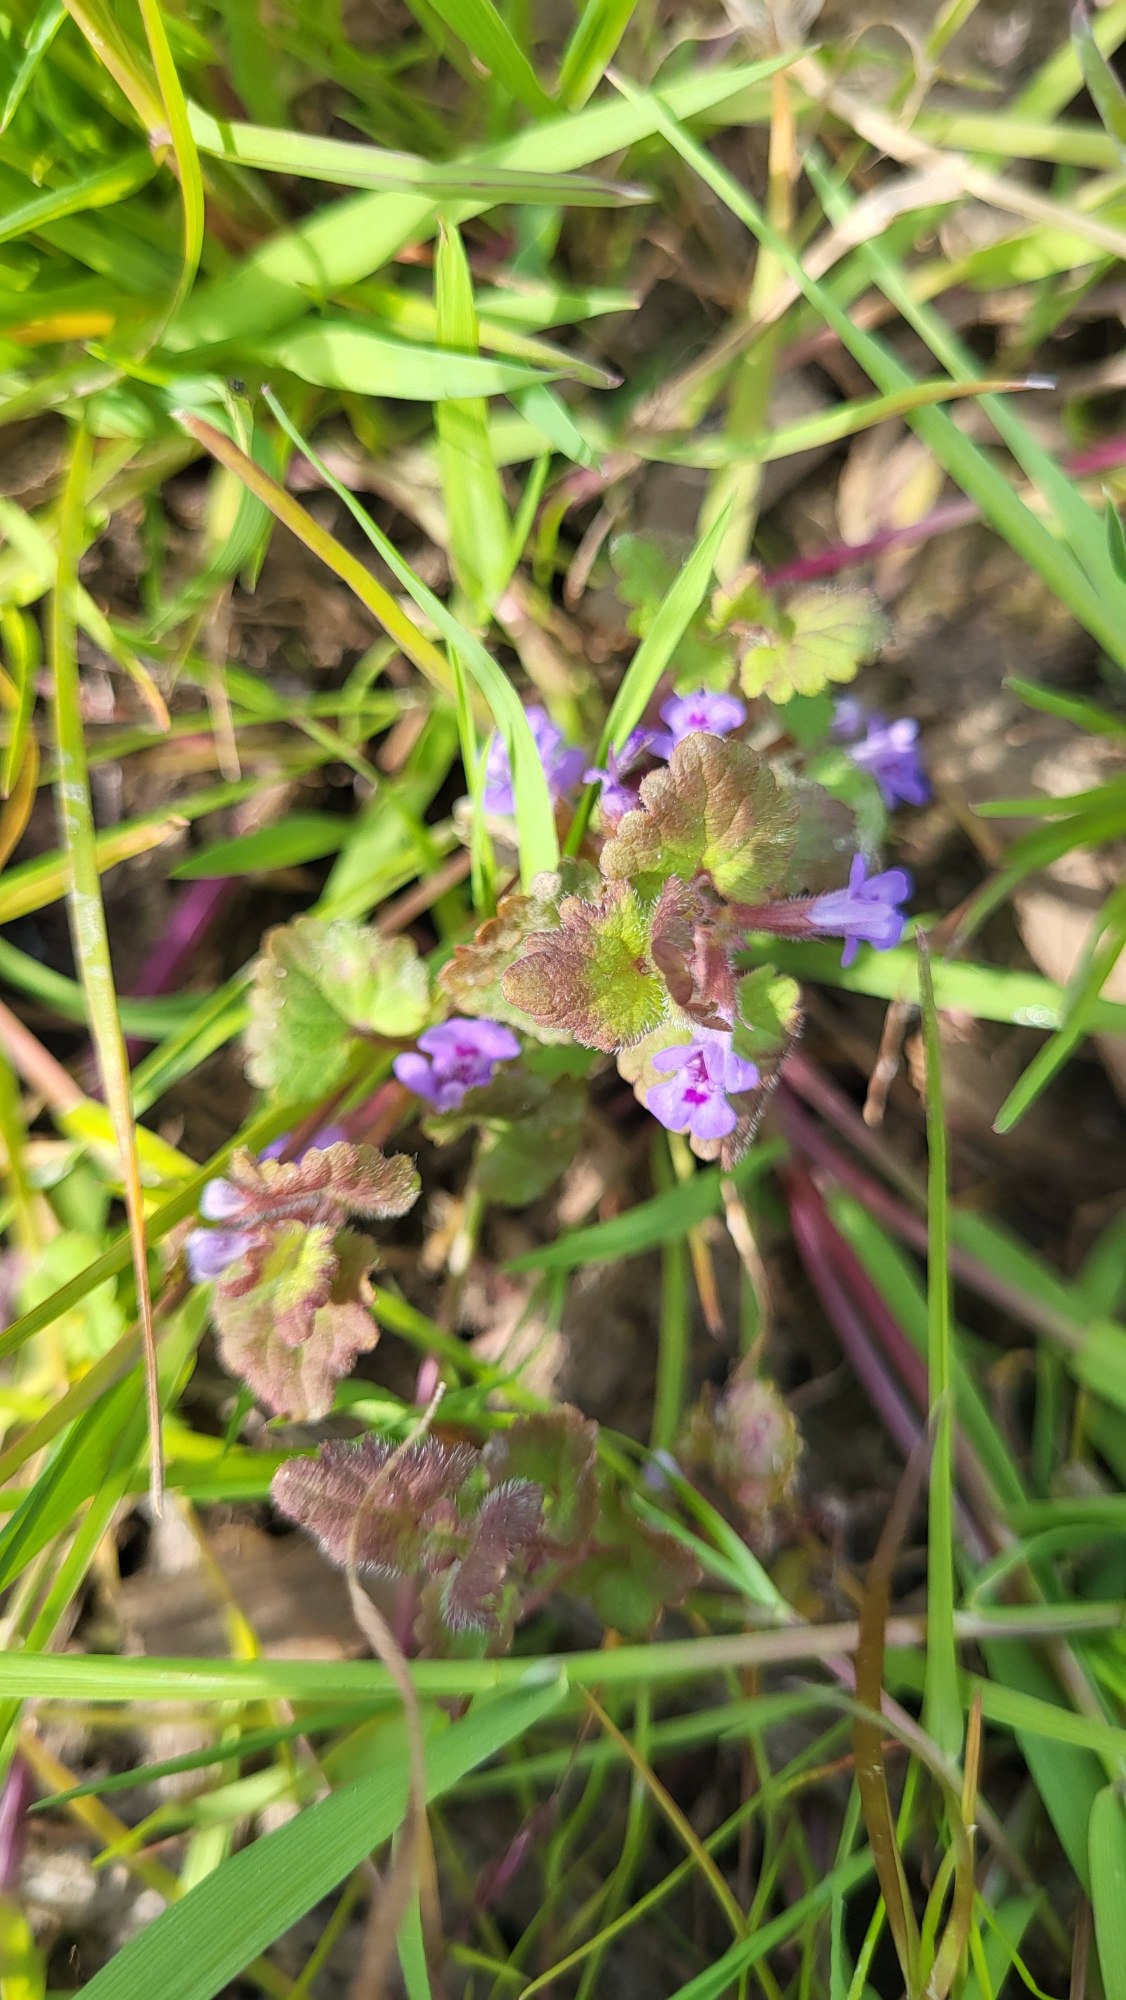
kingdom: Plantae
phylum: Tracheophyta
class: Magnoliopsida
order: Lamiales
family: Lamiaceae
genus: Glechoma
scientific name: Glechoma hederacea
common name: Korsknap
